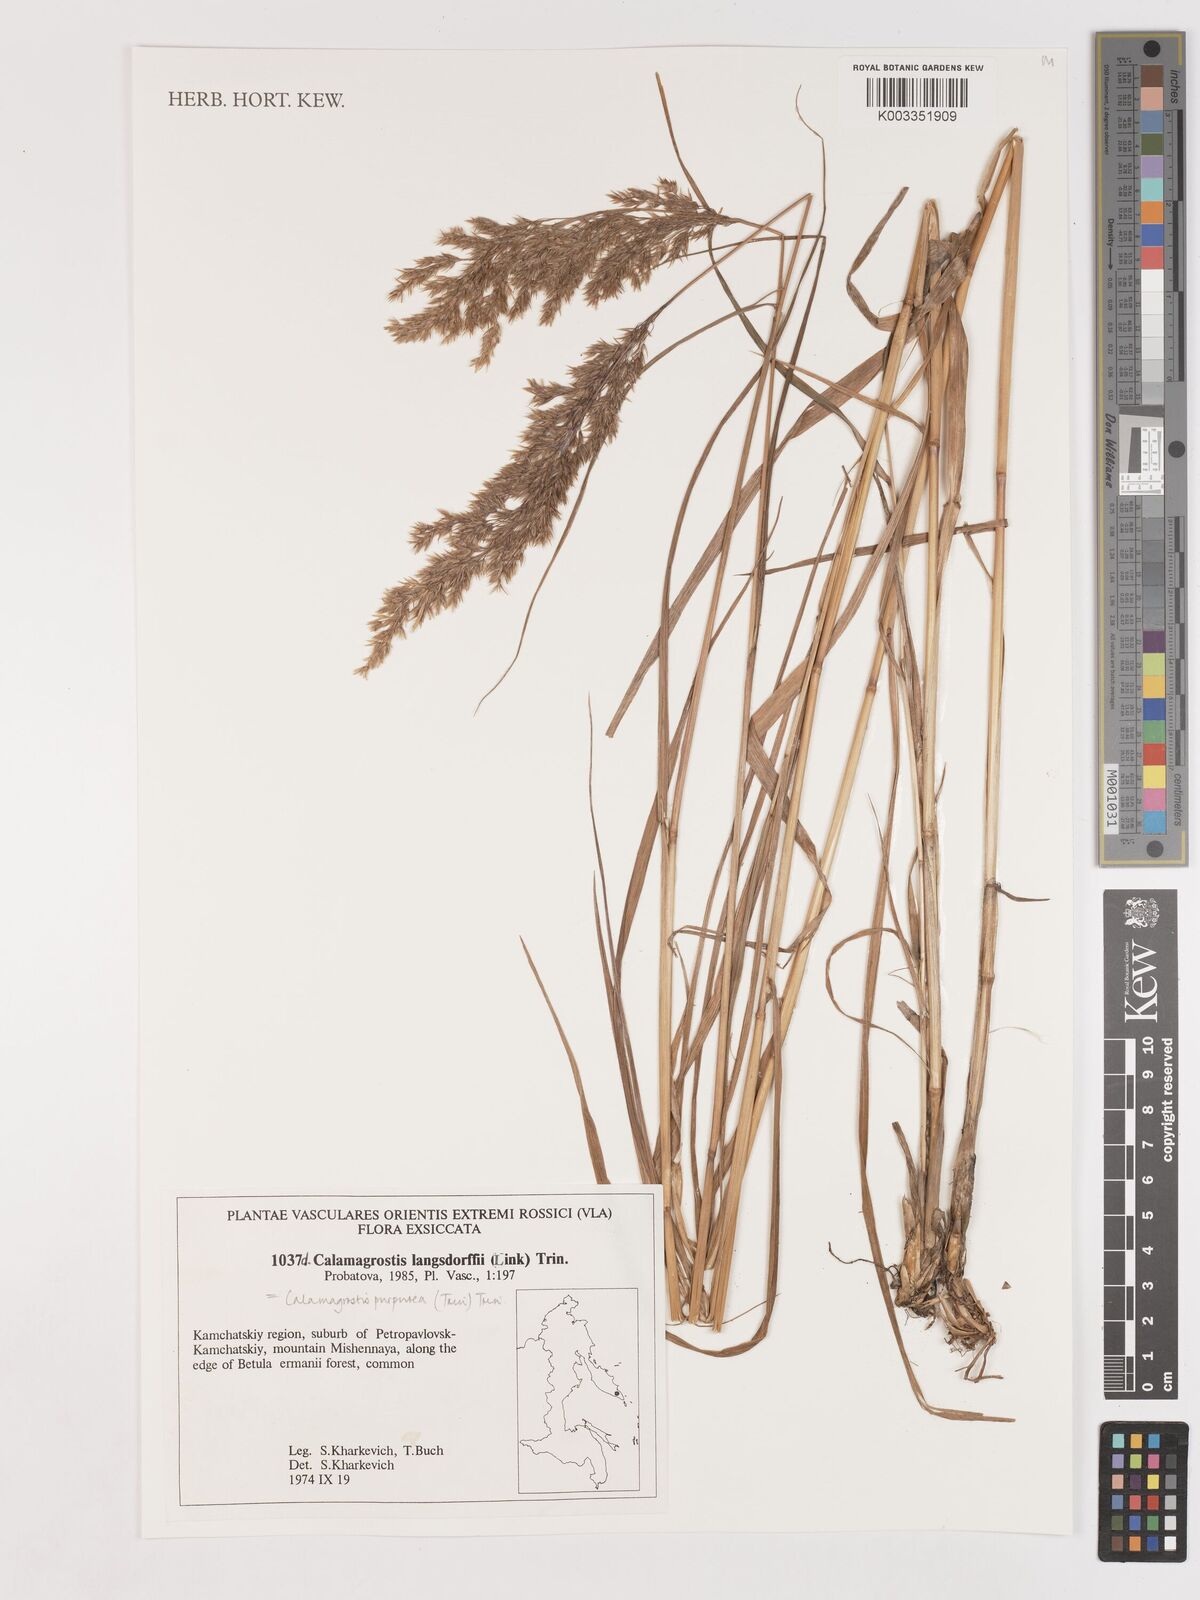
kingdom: Plantae
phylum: Tracheophyta
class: Liliopsida
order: Poales
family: Poaceae
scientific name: Poaceae
